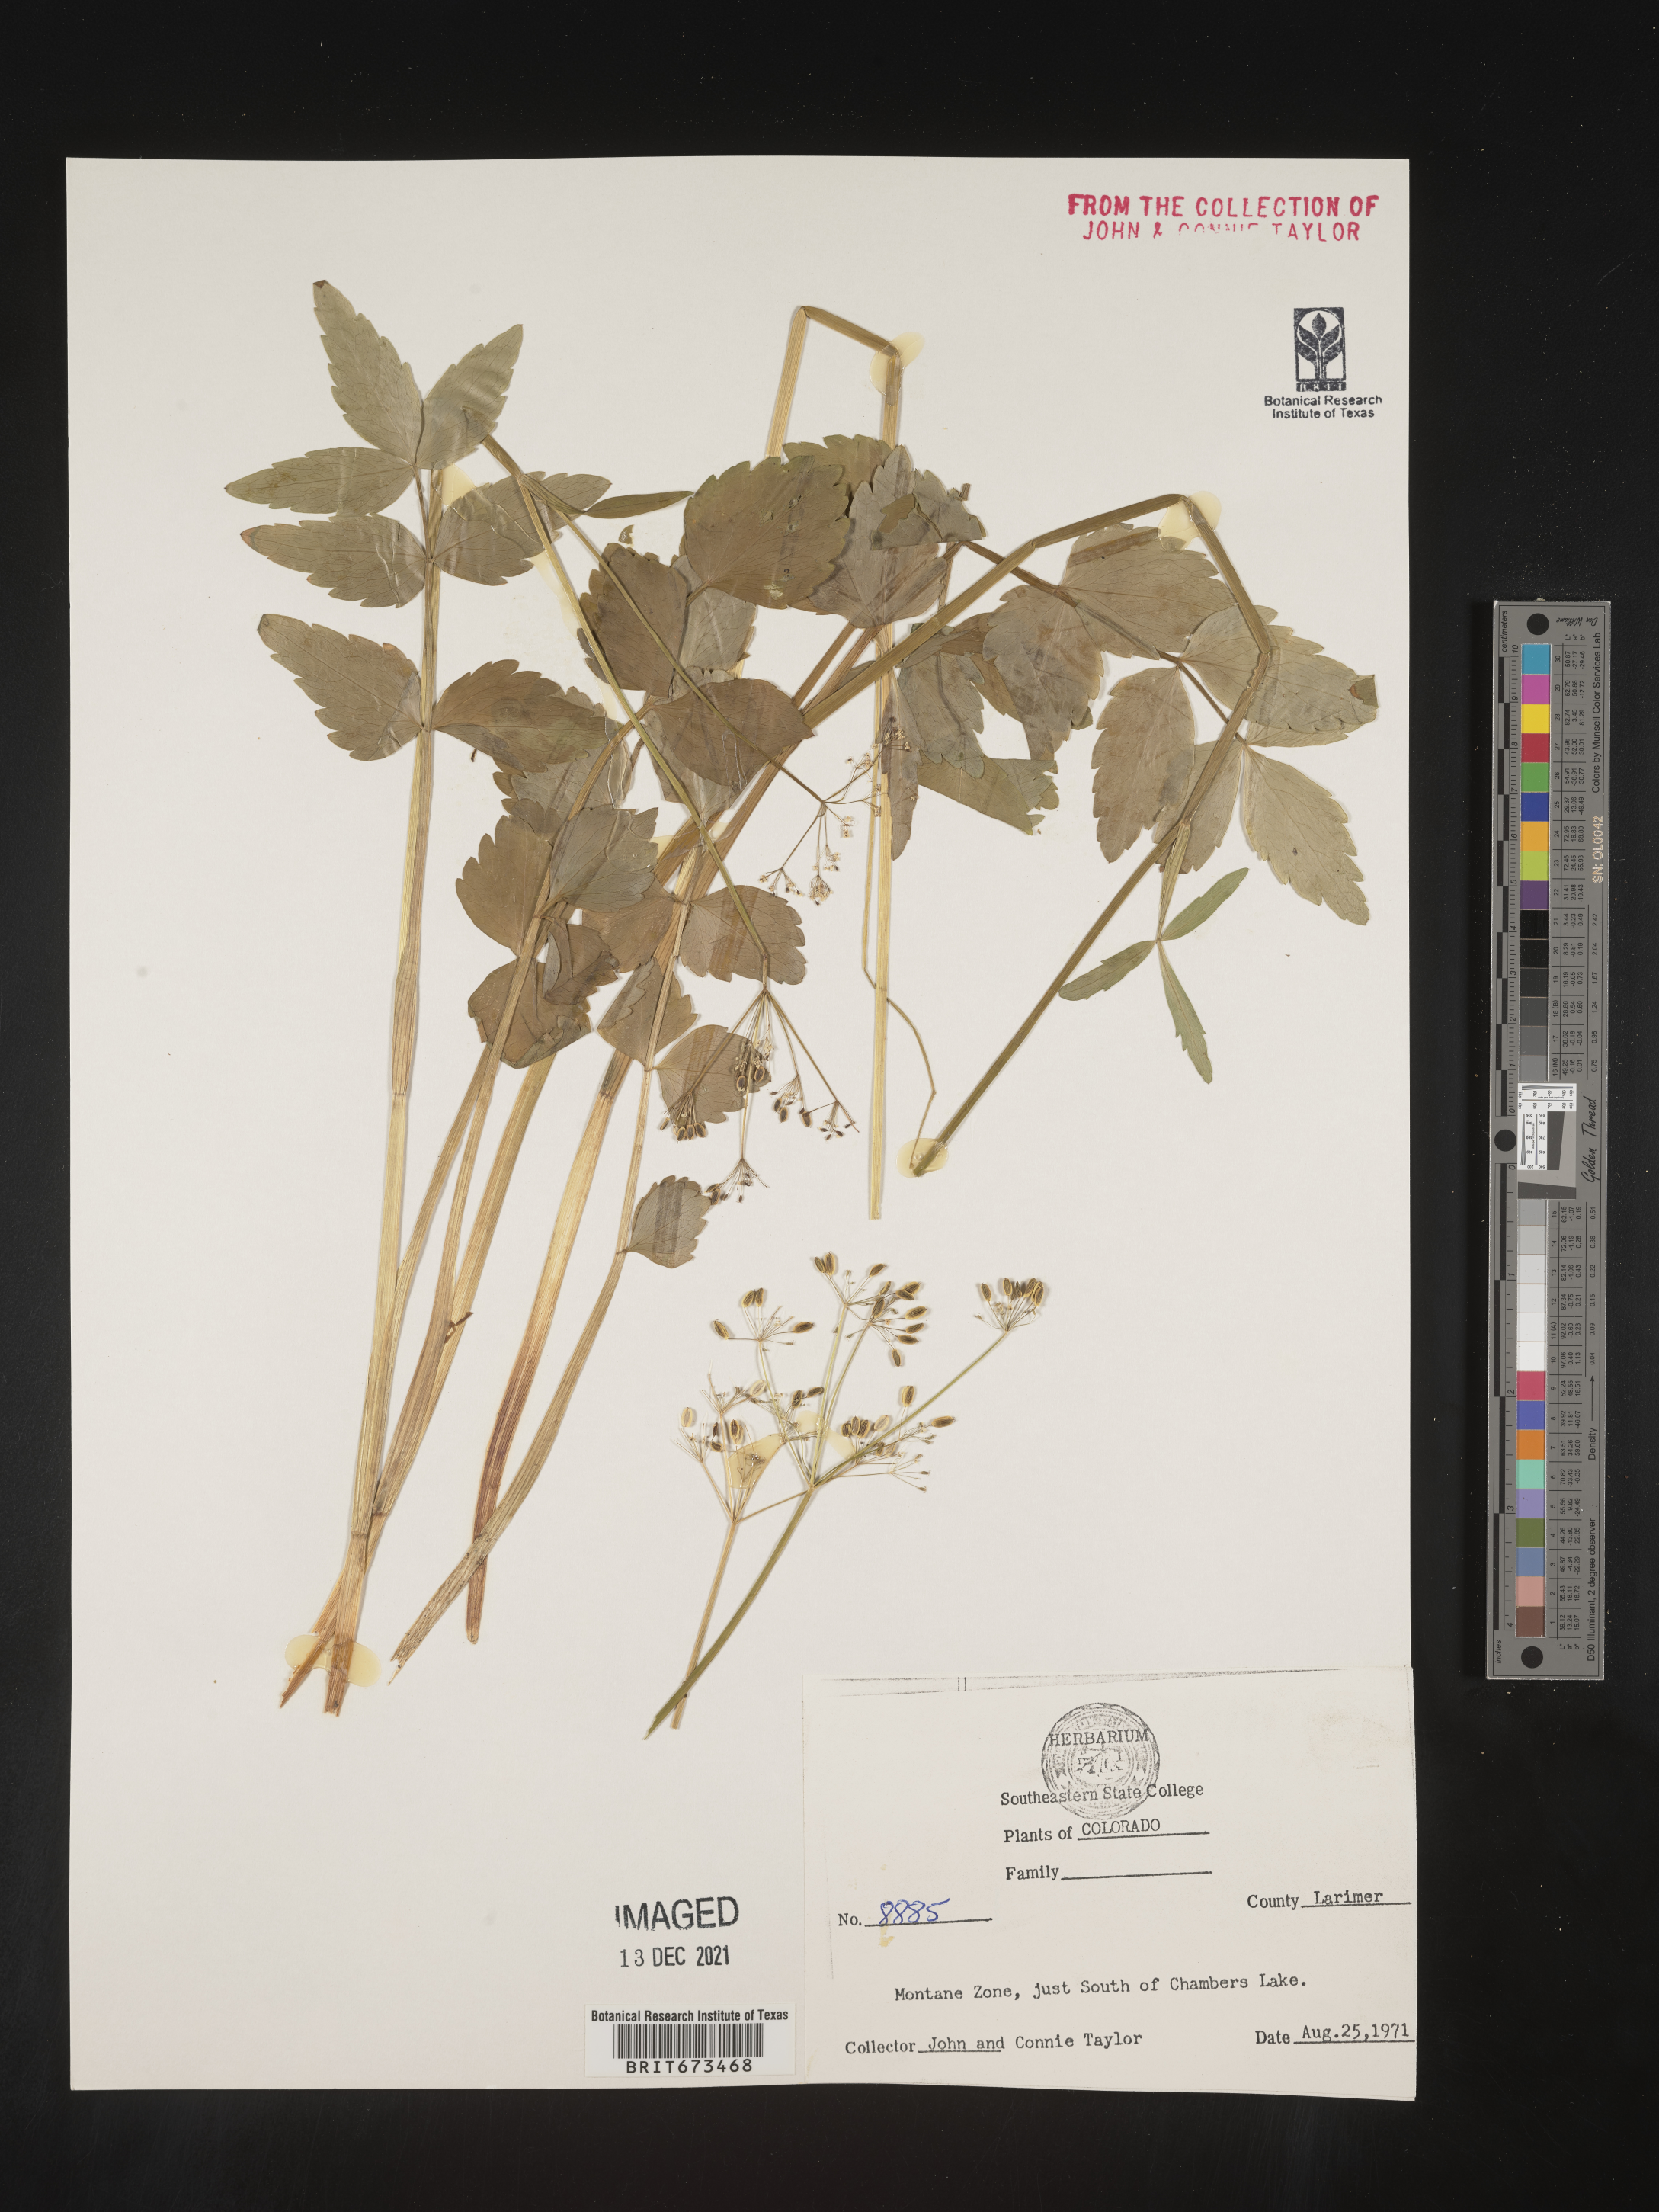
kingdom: Plantae
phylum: Tracheophyta
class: Magnoliopsida
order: Apiales
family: Apiaceae
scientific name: Apiaceae
